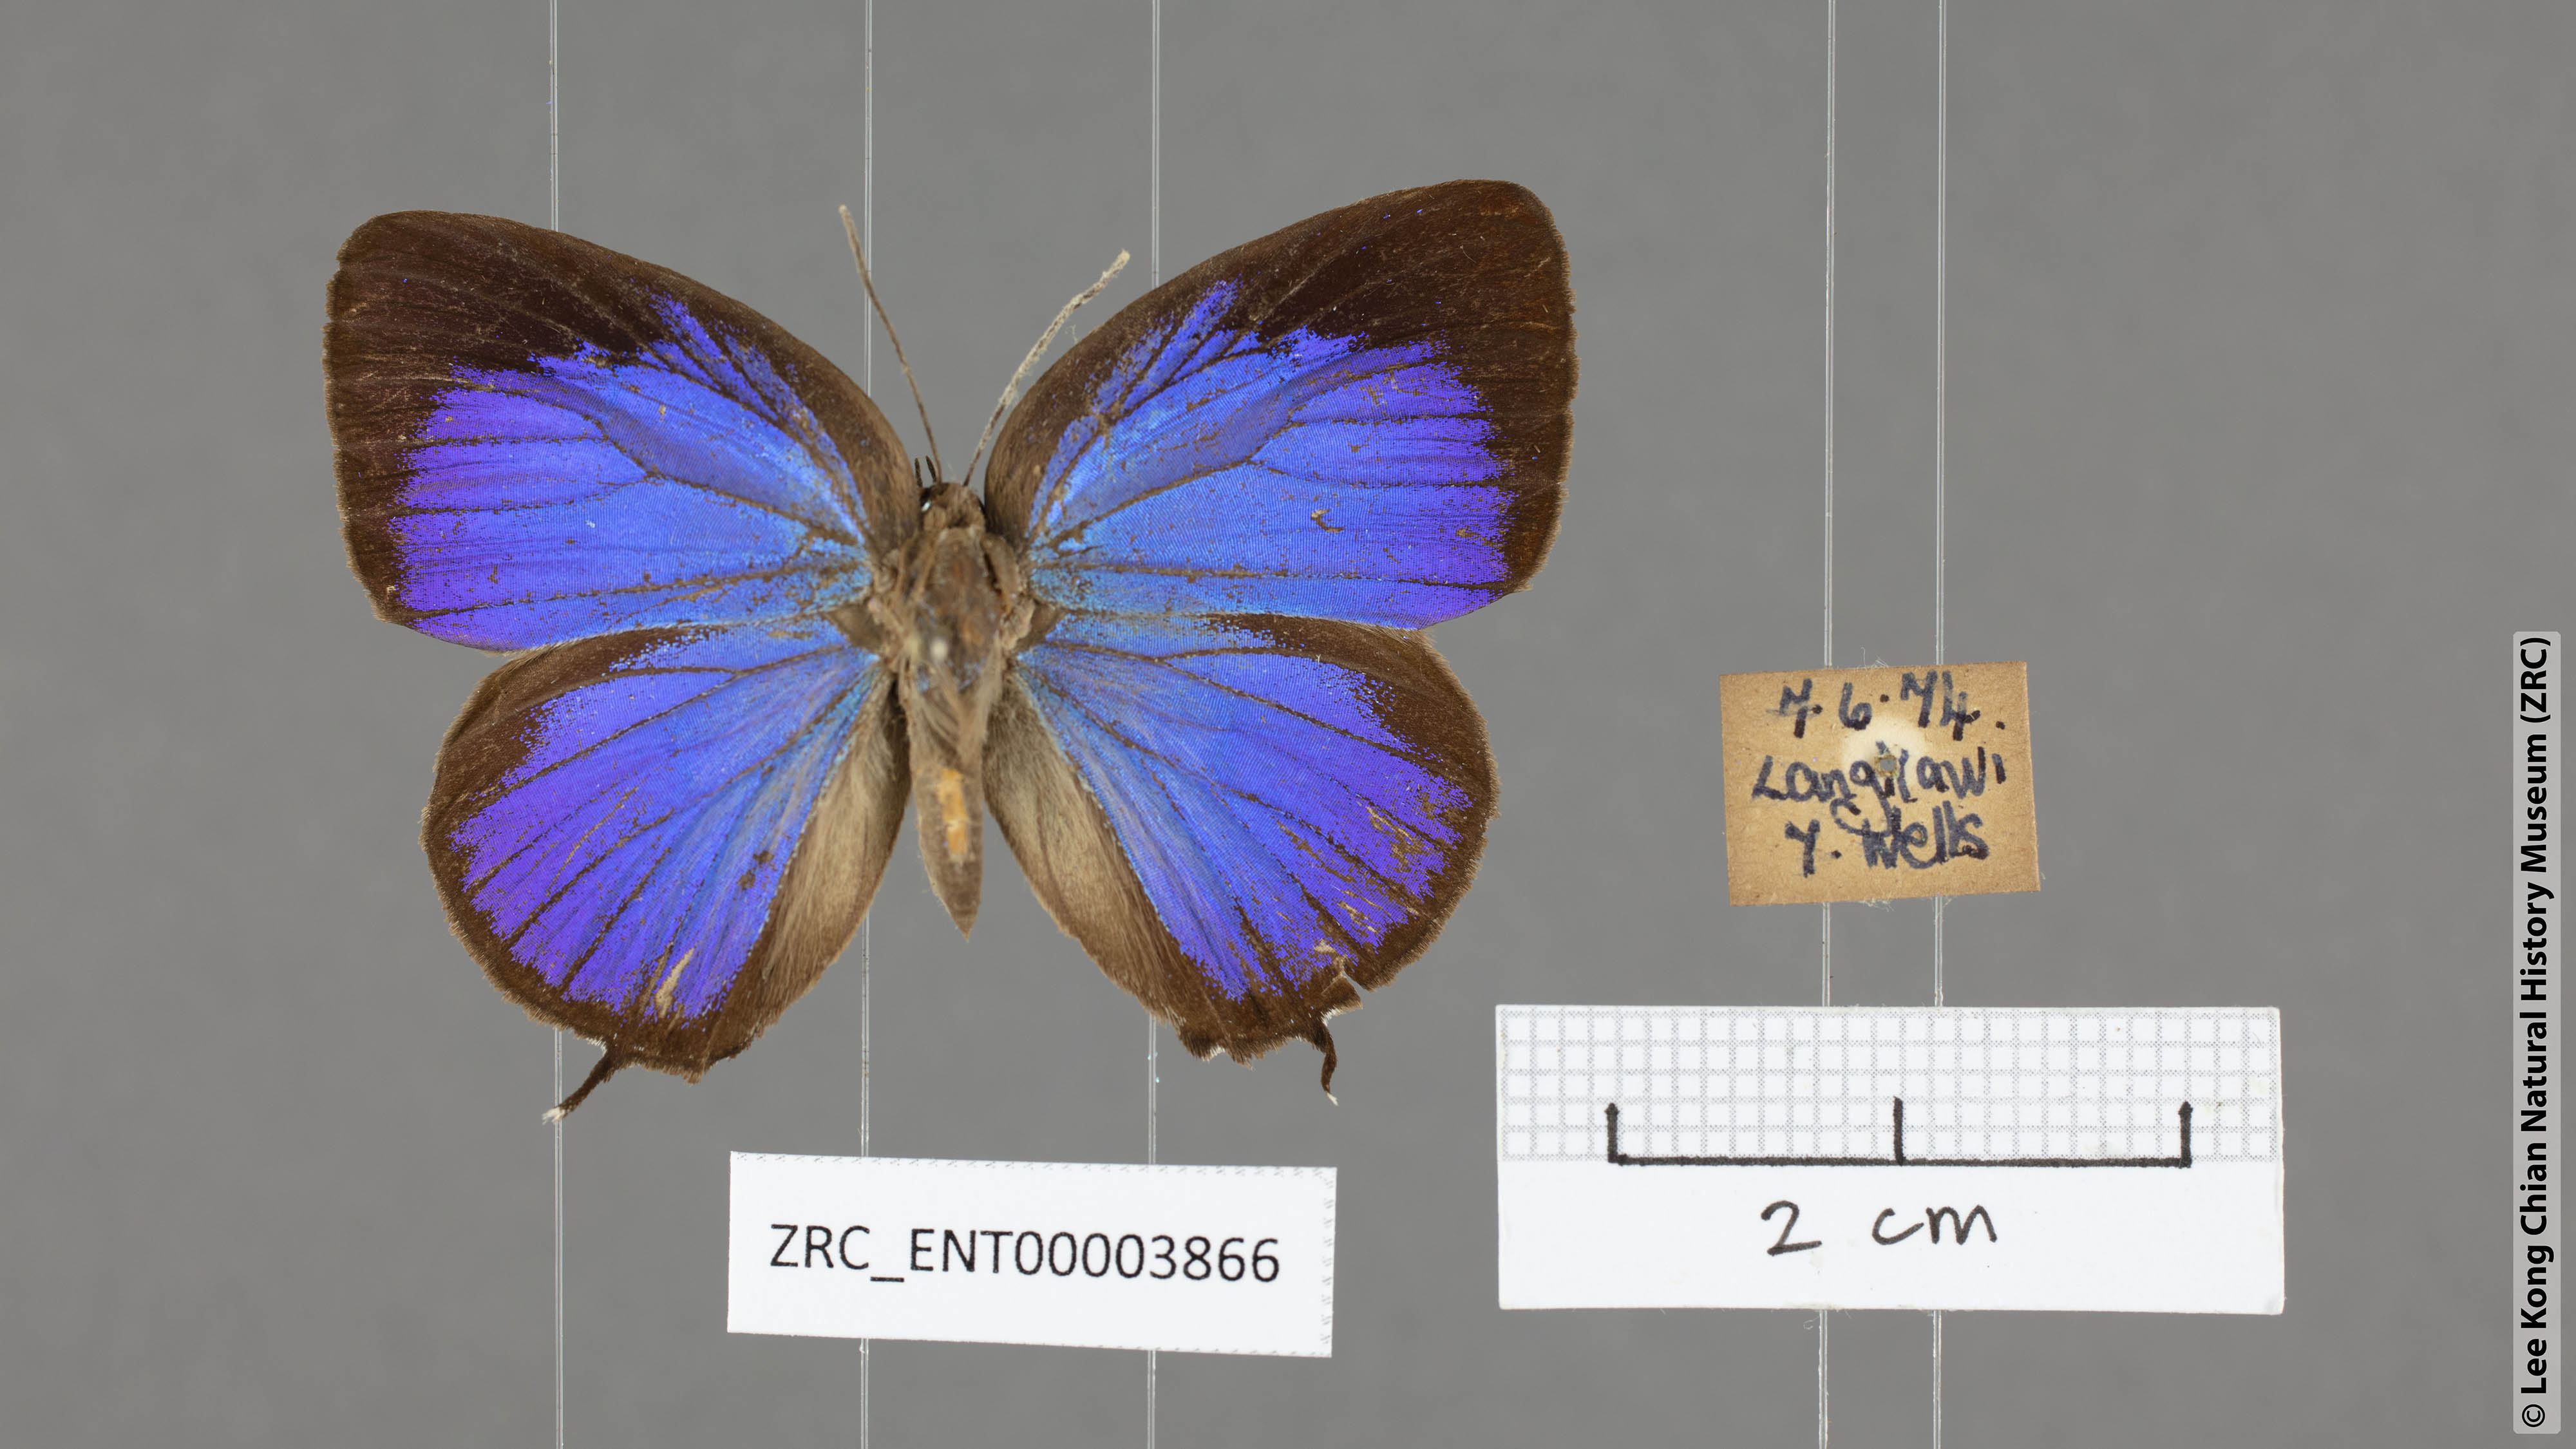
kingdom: Animalia
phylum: Arthropoda
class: Insecta
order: Lepidoptera
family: Lycaenidae
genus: Arhopala
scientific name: Arhopala atosia
